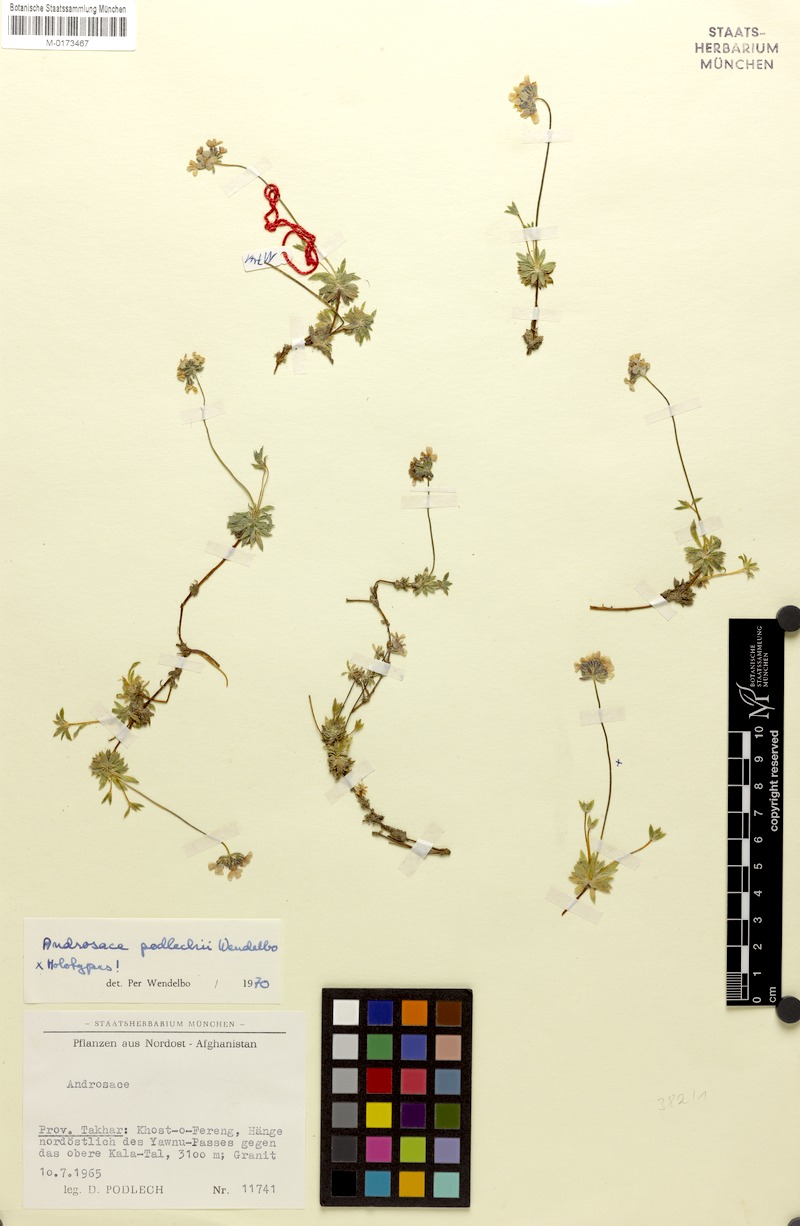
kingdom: Plantae
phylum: Tracheophyta
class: Magnoliopsida
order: Ericales
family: Primulaceae
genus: Androsace
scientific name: Androsace podlechii
